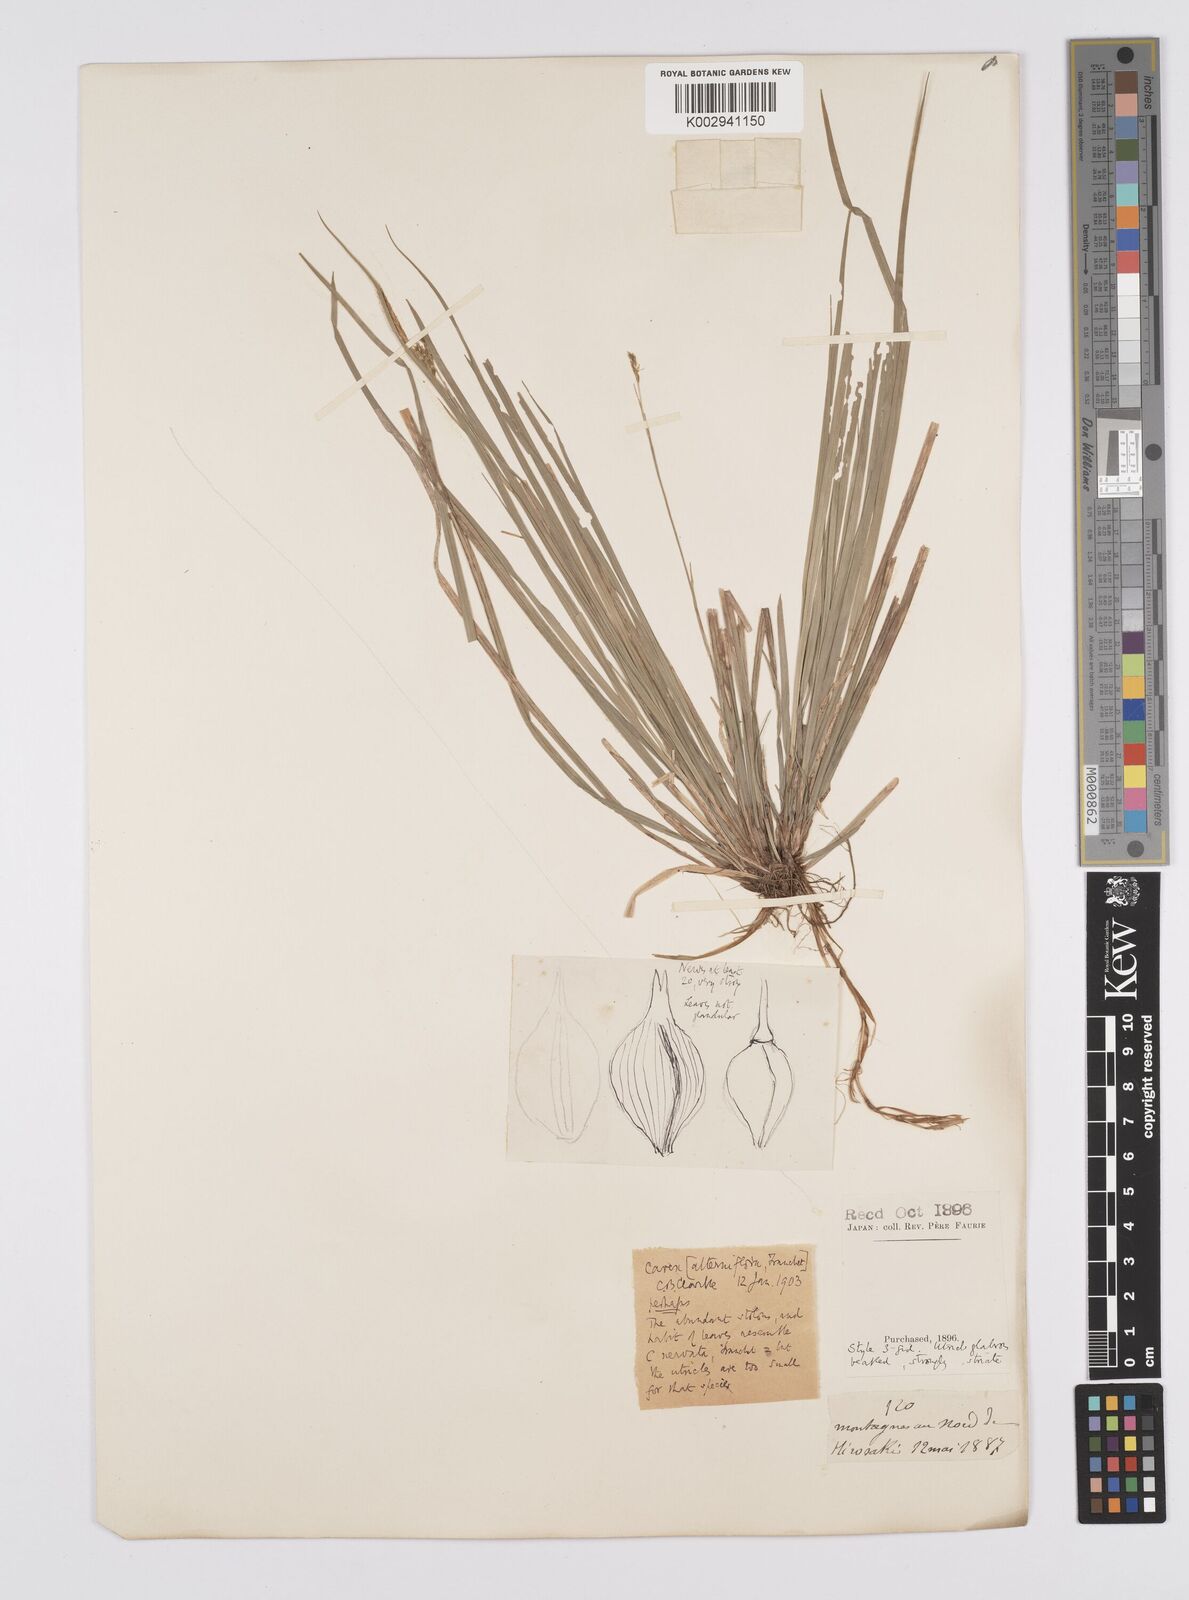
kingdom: Plantae
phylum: Tracheophyta
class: Liliopsida
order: Poales
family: Cyperaceae
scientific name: Cyperaceae
